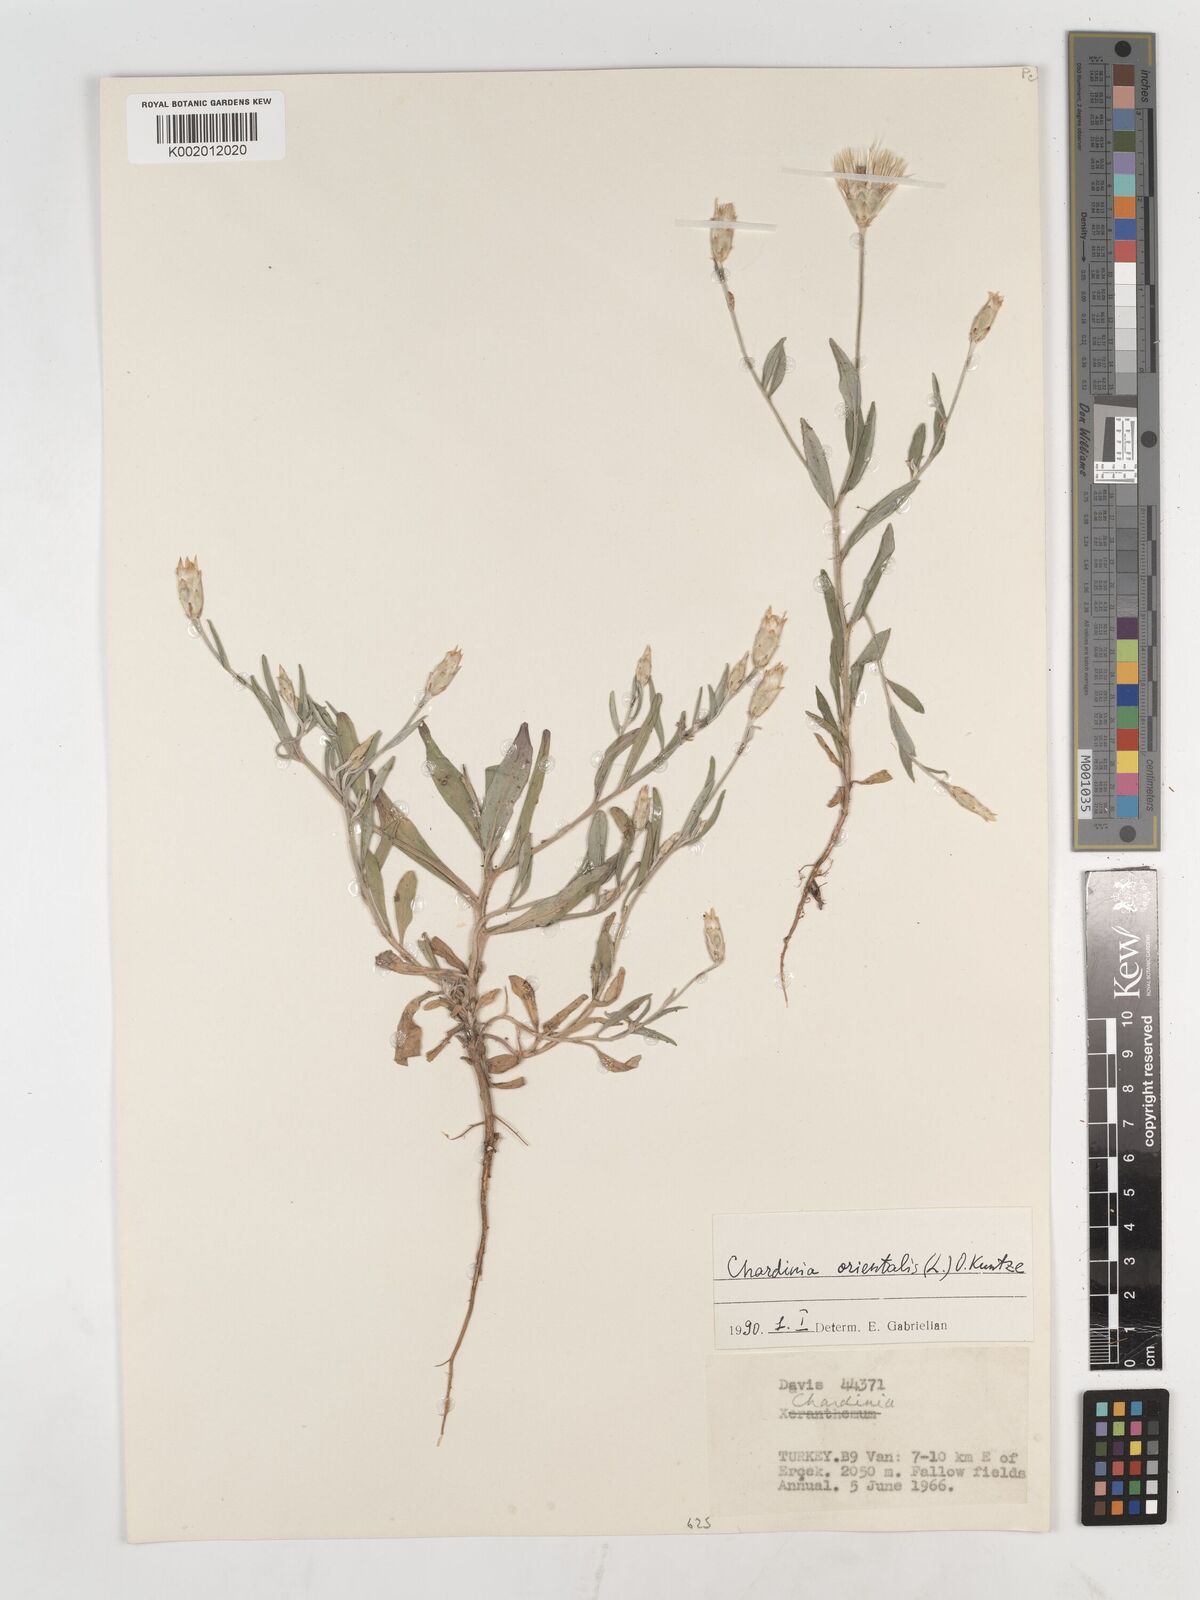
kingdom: Plantae
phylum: Tracheophyta
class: Magnoliopsida
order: Asterales
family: Asteraceae
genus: Chardinia
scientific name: Chardinia orientalis
